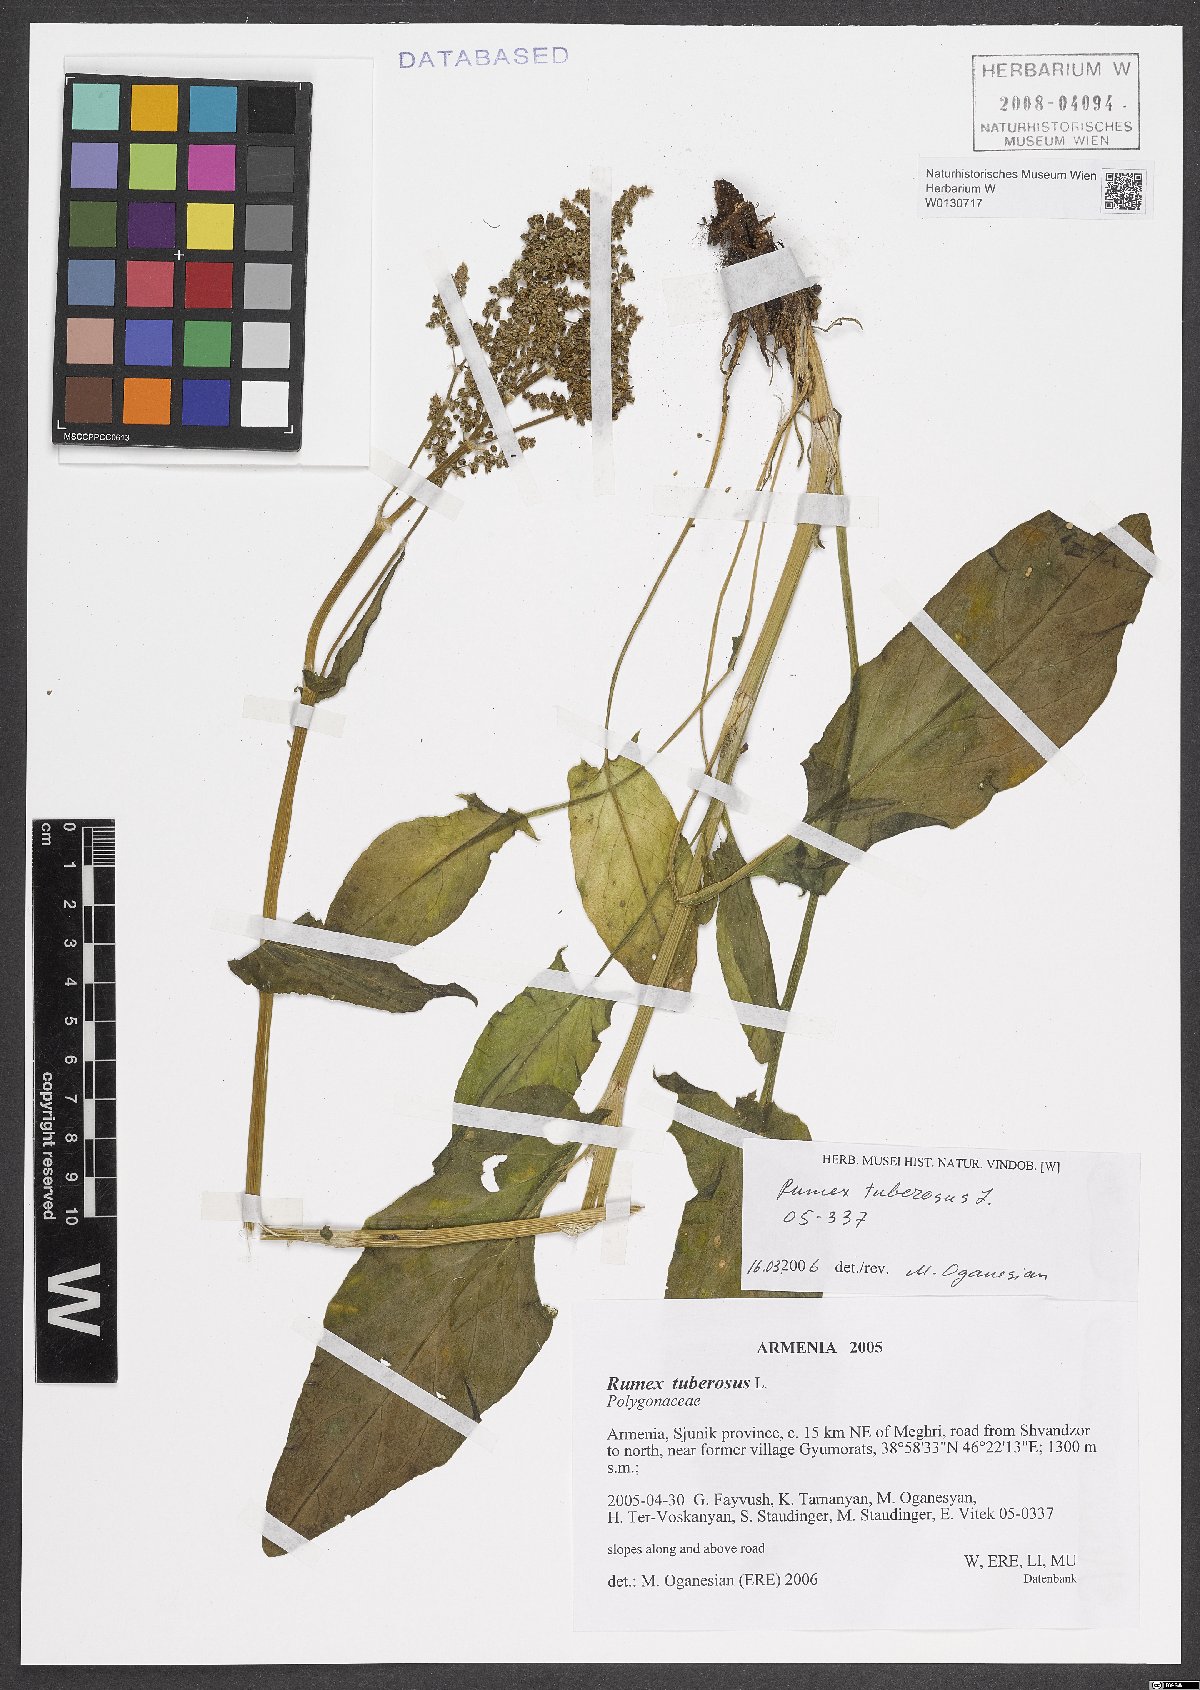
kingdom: Plantae
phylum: Tracheophyta
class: Magnoliopsida
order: Caryophyllales
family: Polygonaceae
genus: Rumex
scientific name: Rumex tuberosus
